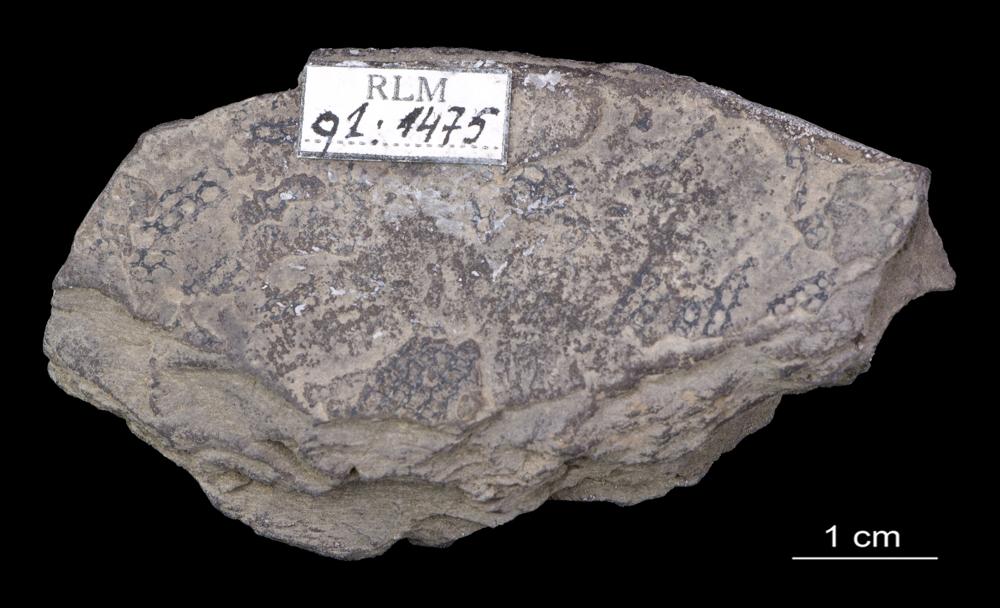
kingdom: Animalia
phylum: Hemichordata
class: Pterobranchia
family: Anisograptidae
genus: Rhabdinopora
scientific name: Rhabdinopora
